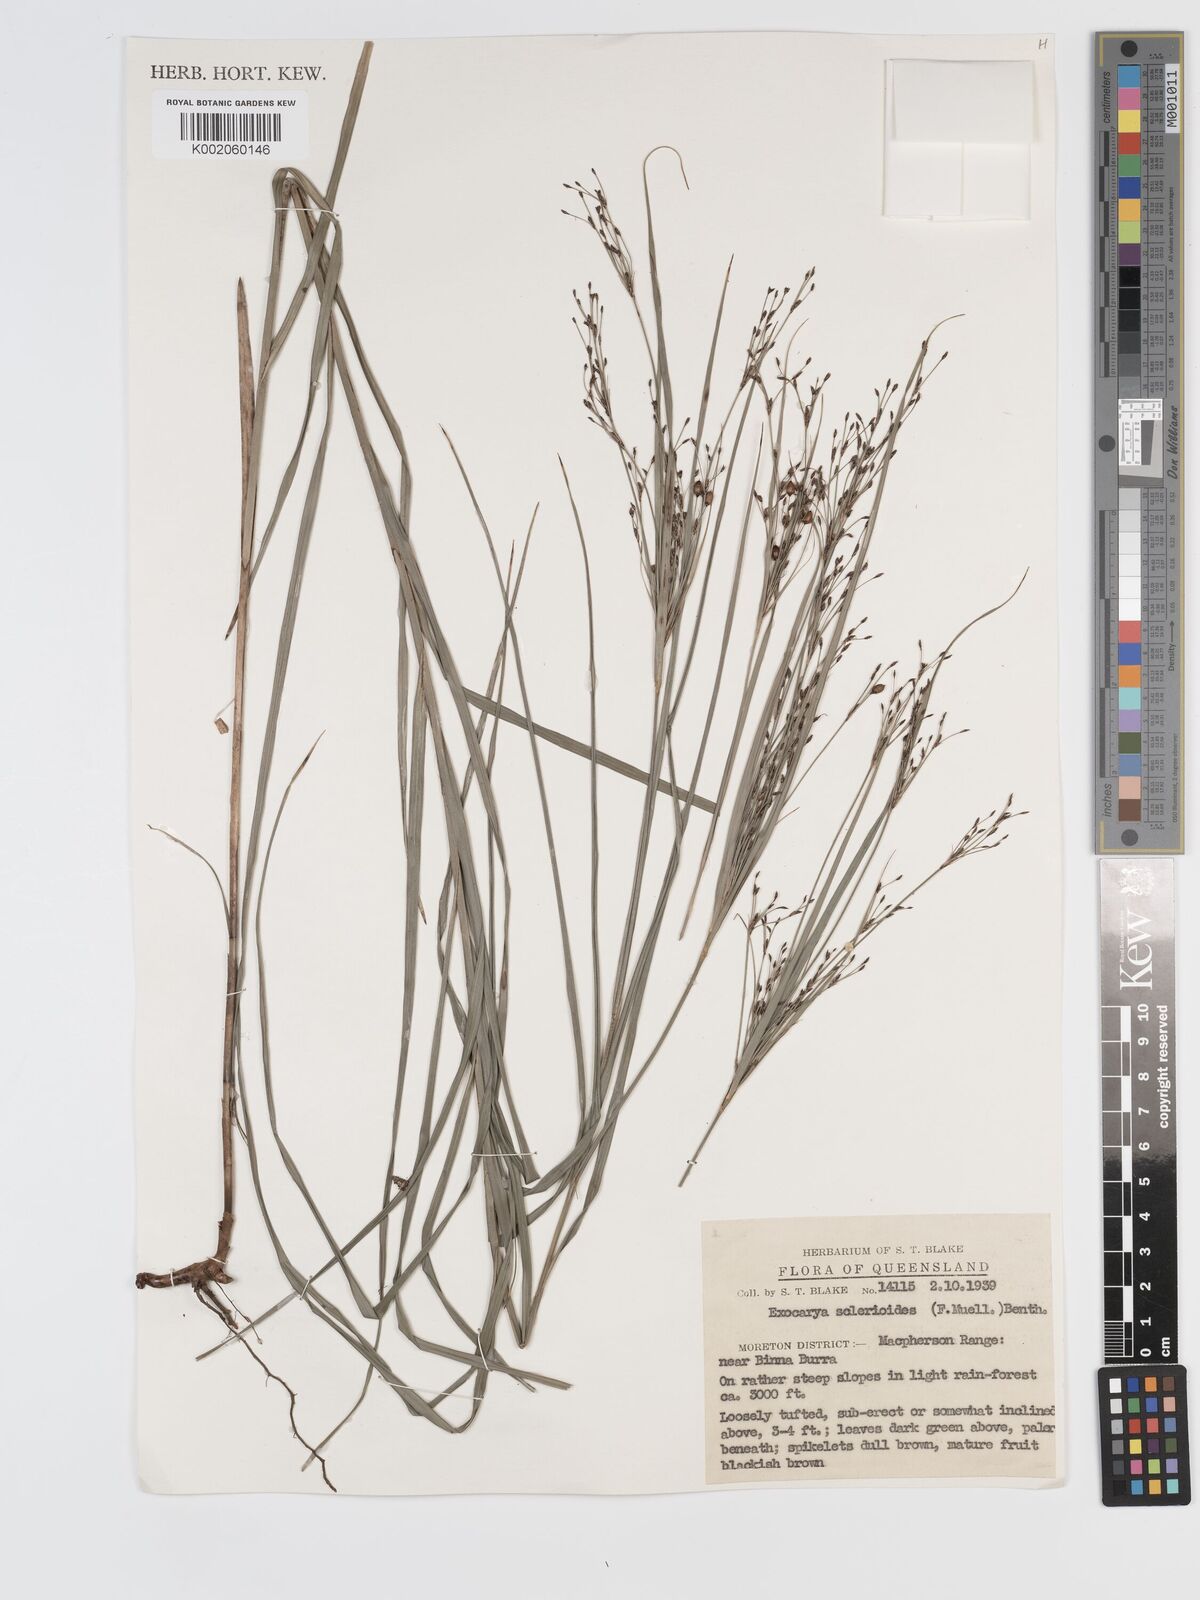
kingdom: Plantae
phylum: Tracheophyta
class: Liliopsida
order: Poales
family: Cyperaceae
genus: Exocarya
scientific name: Exocarya sclerioides
